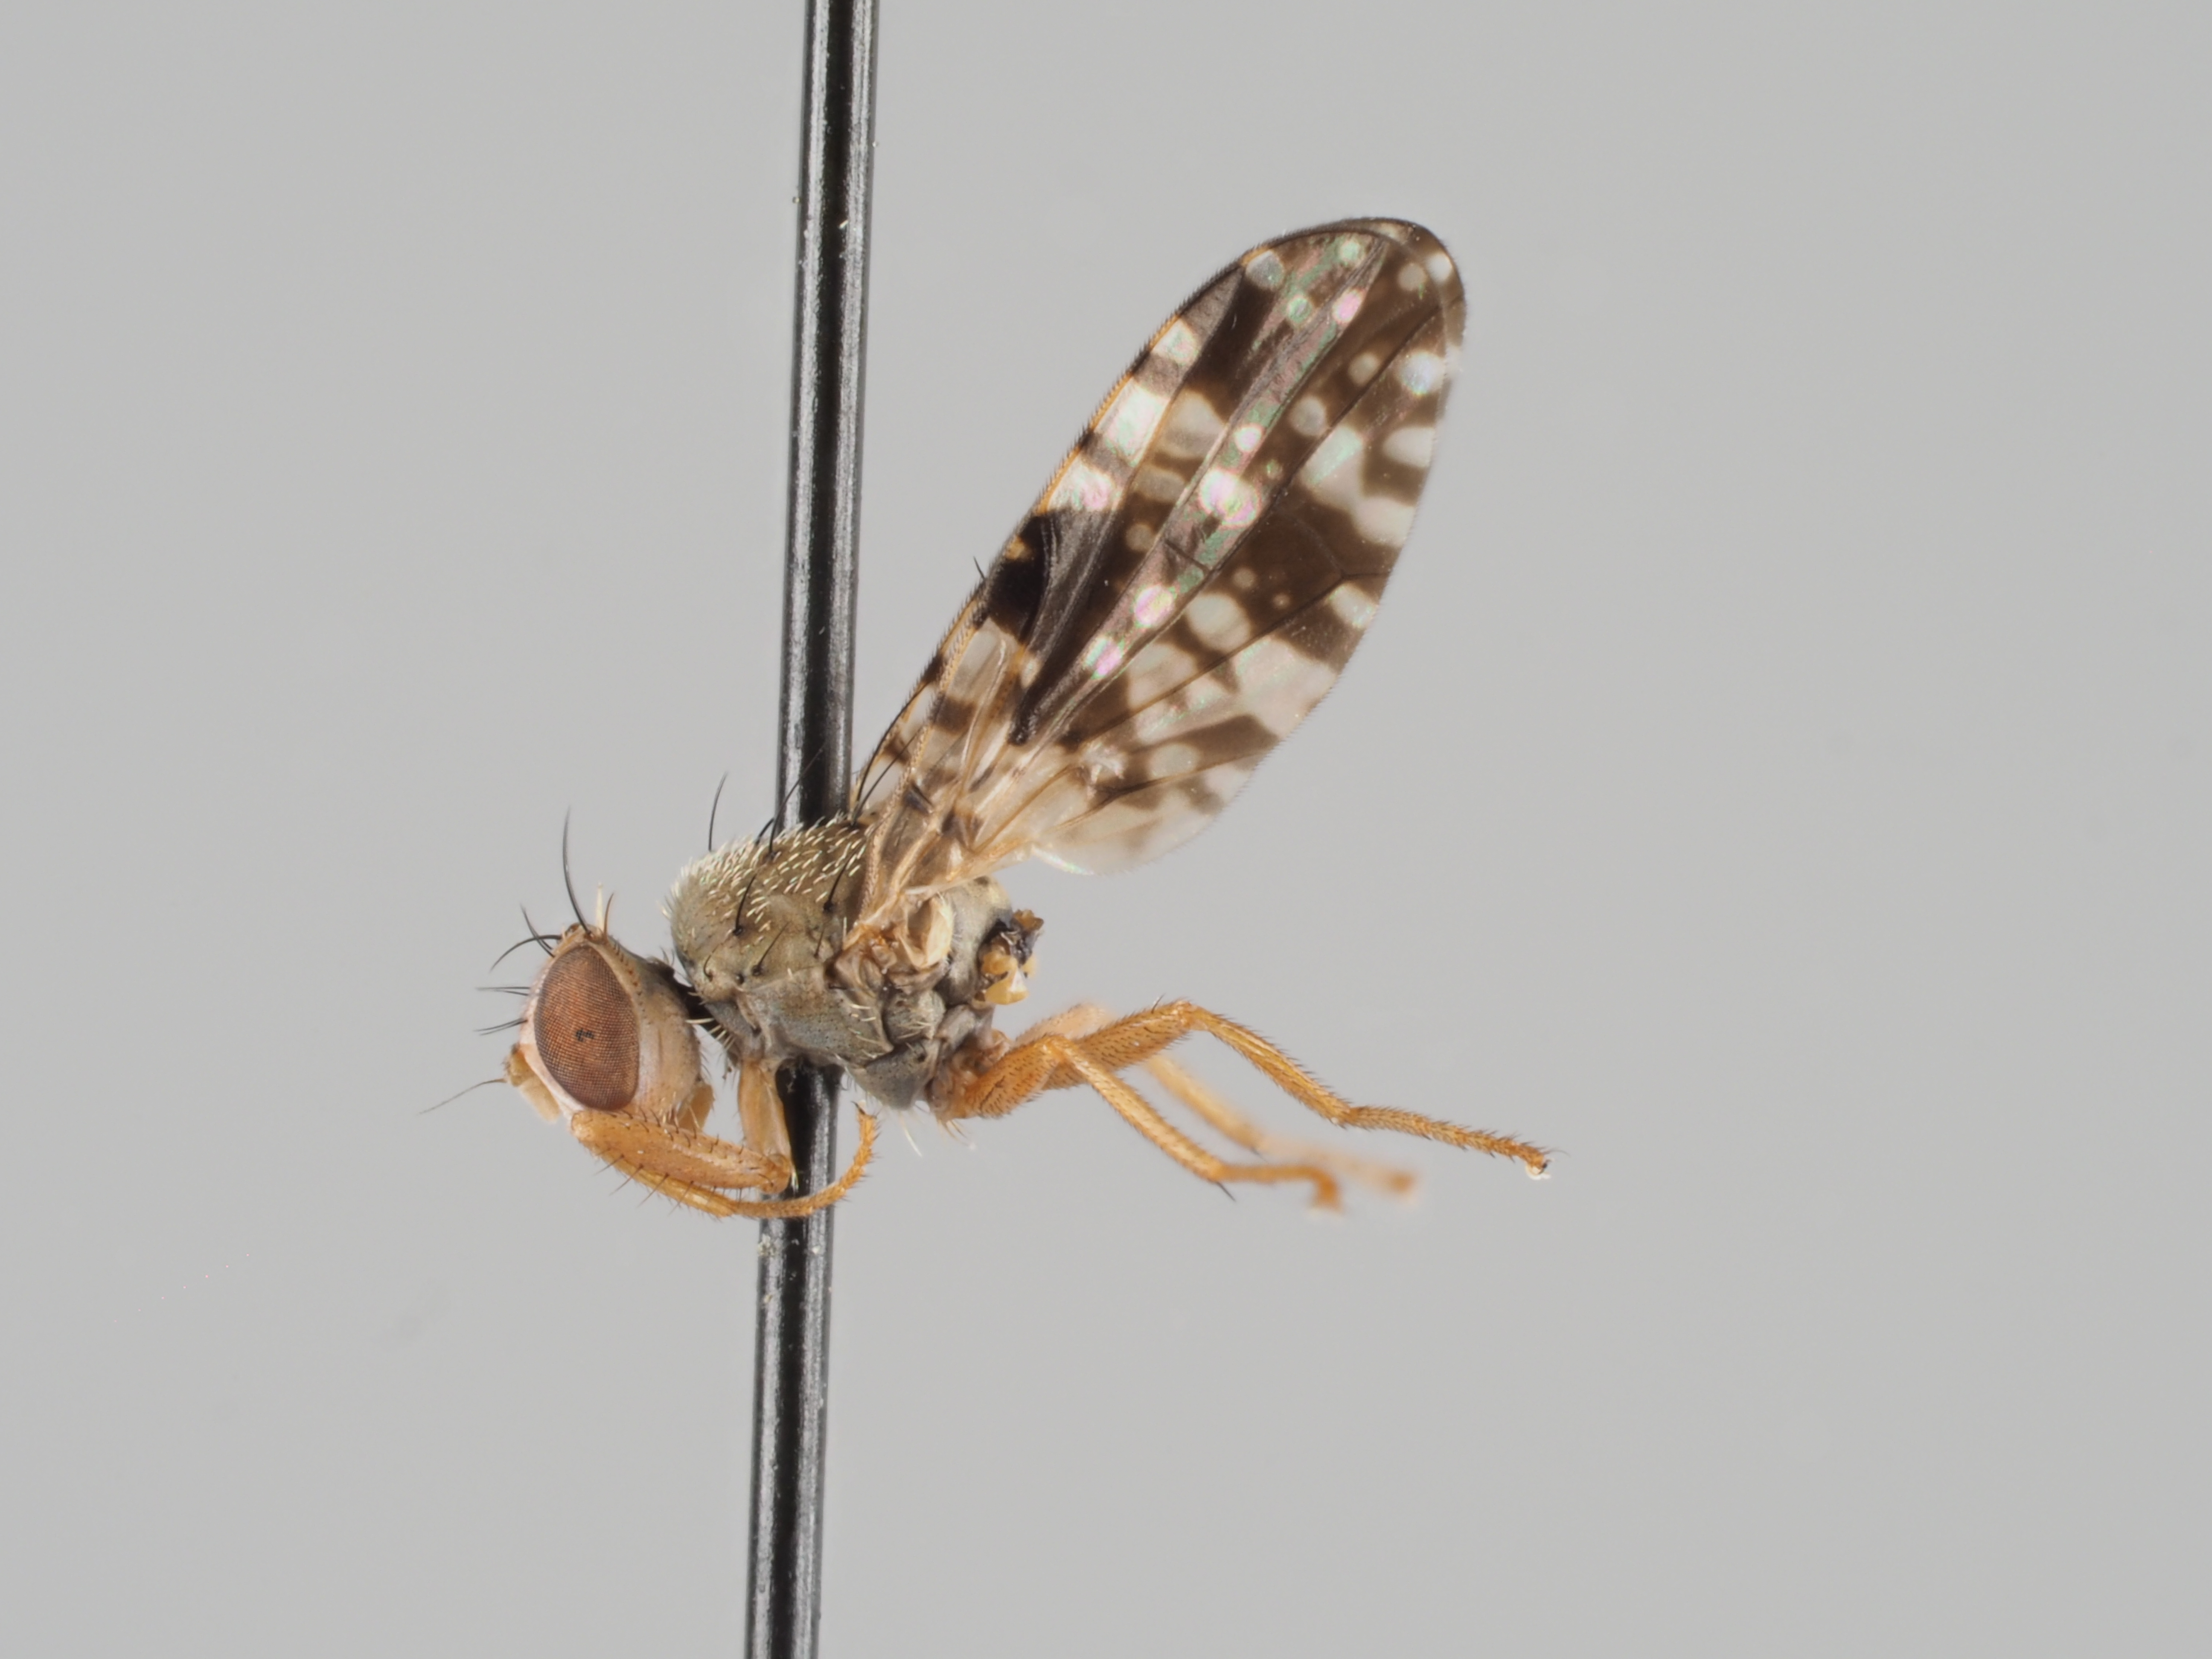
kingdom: Animalia
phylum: Arthropoda
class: Insecta
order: Diptera
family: Tephritidae
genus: Campiglossa
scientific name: Campiglossa solidaginis
